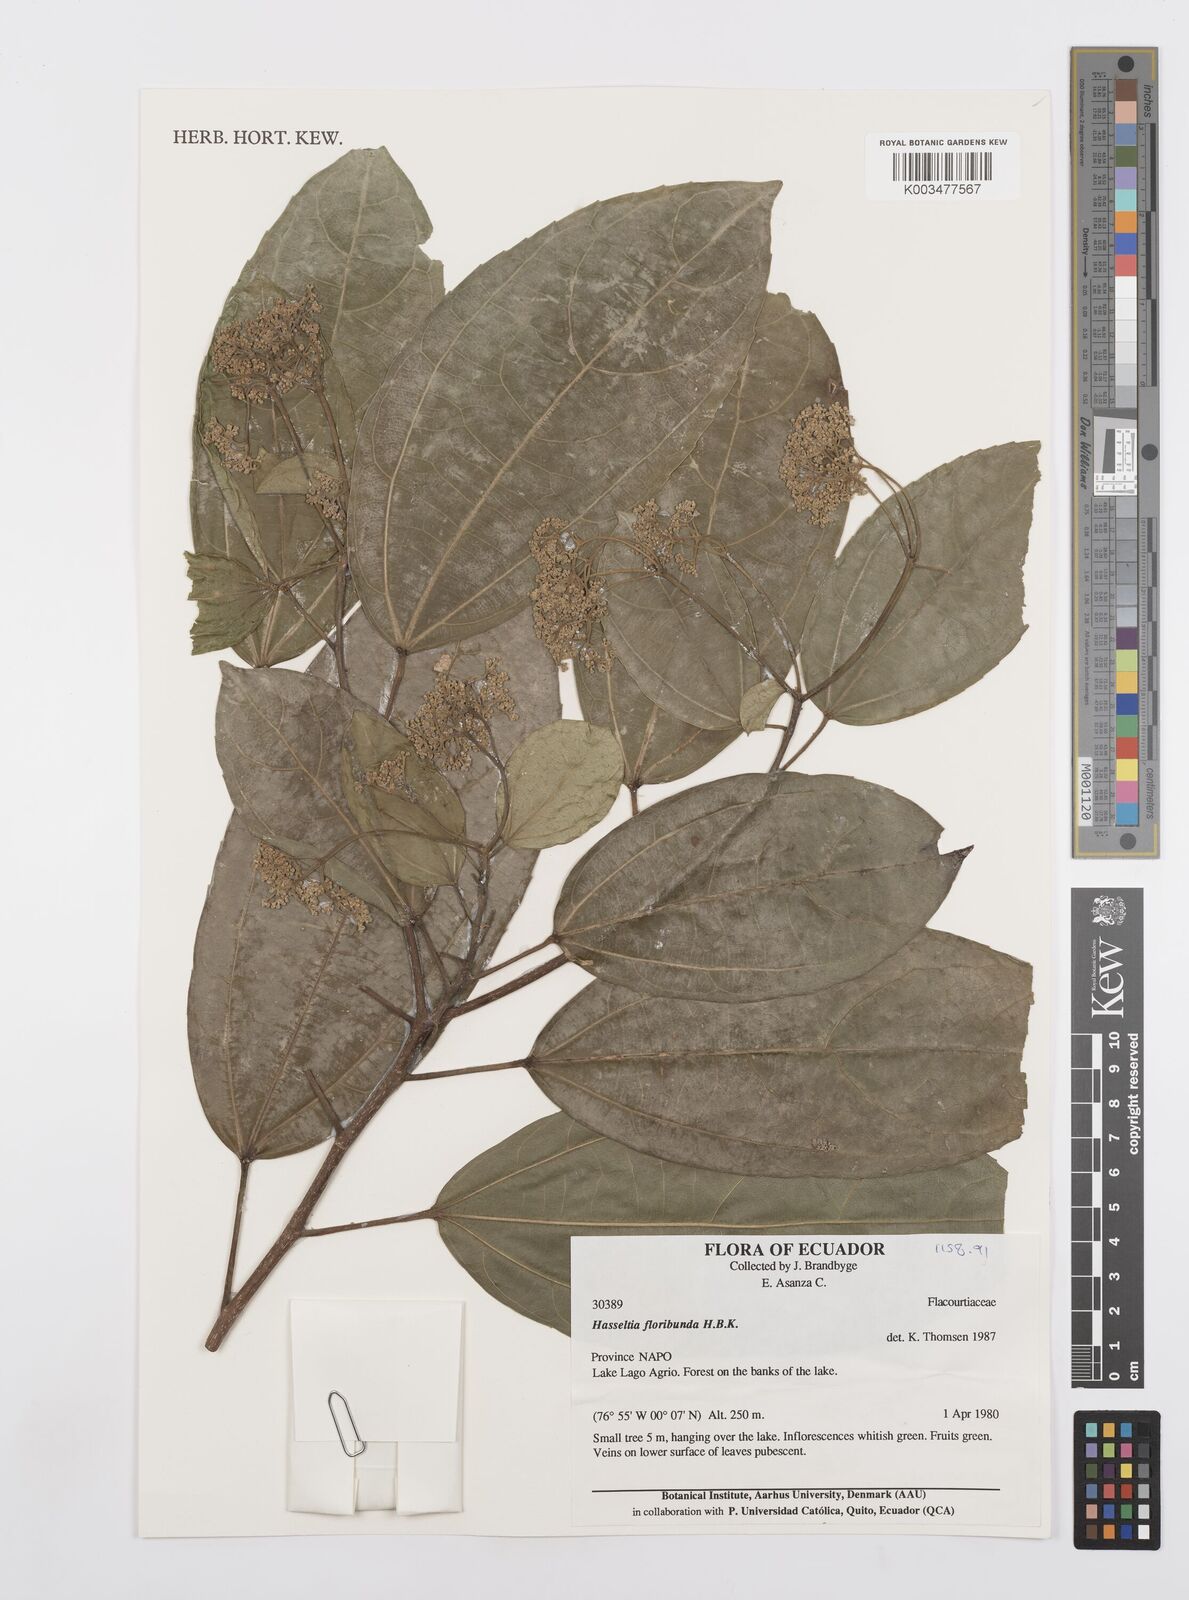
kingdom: Plantae
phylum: Tracheophyta
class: Magnoliopsida
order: Malpighiales
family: Salicaceae
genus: Hasseltia
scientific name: Hasseltia floribunda
